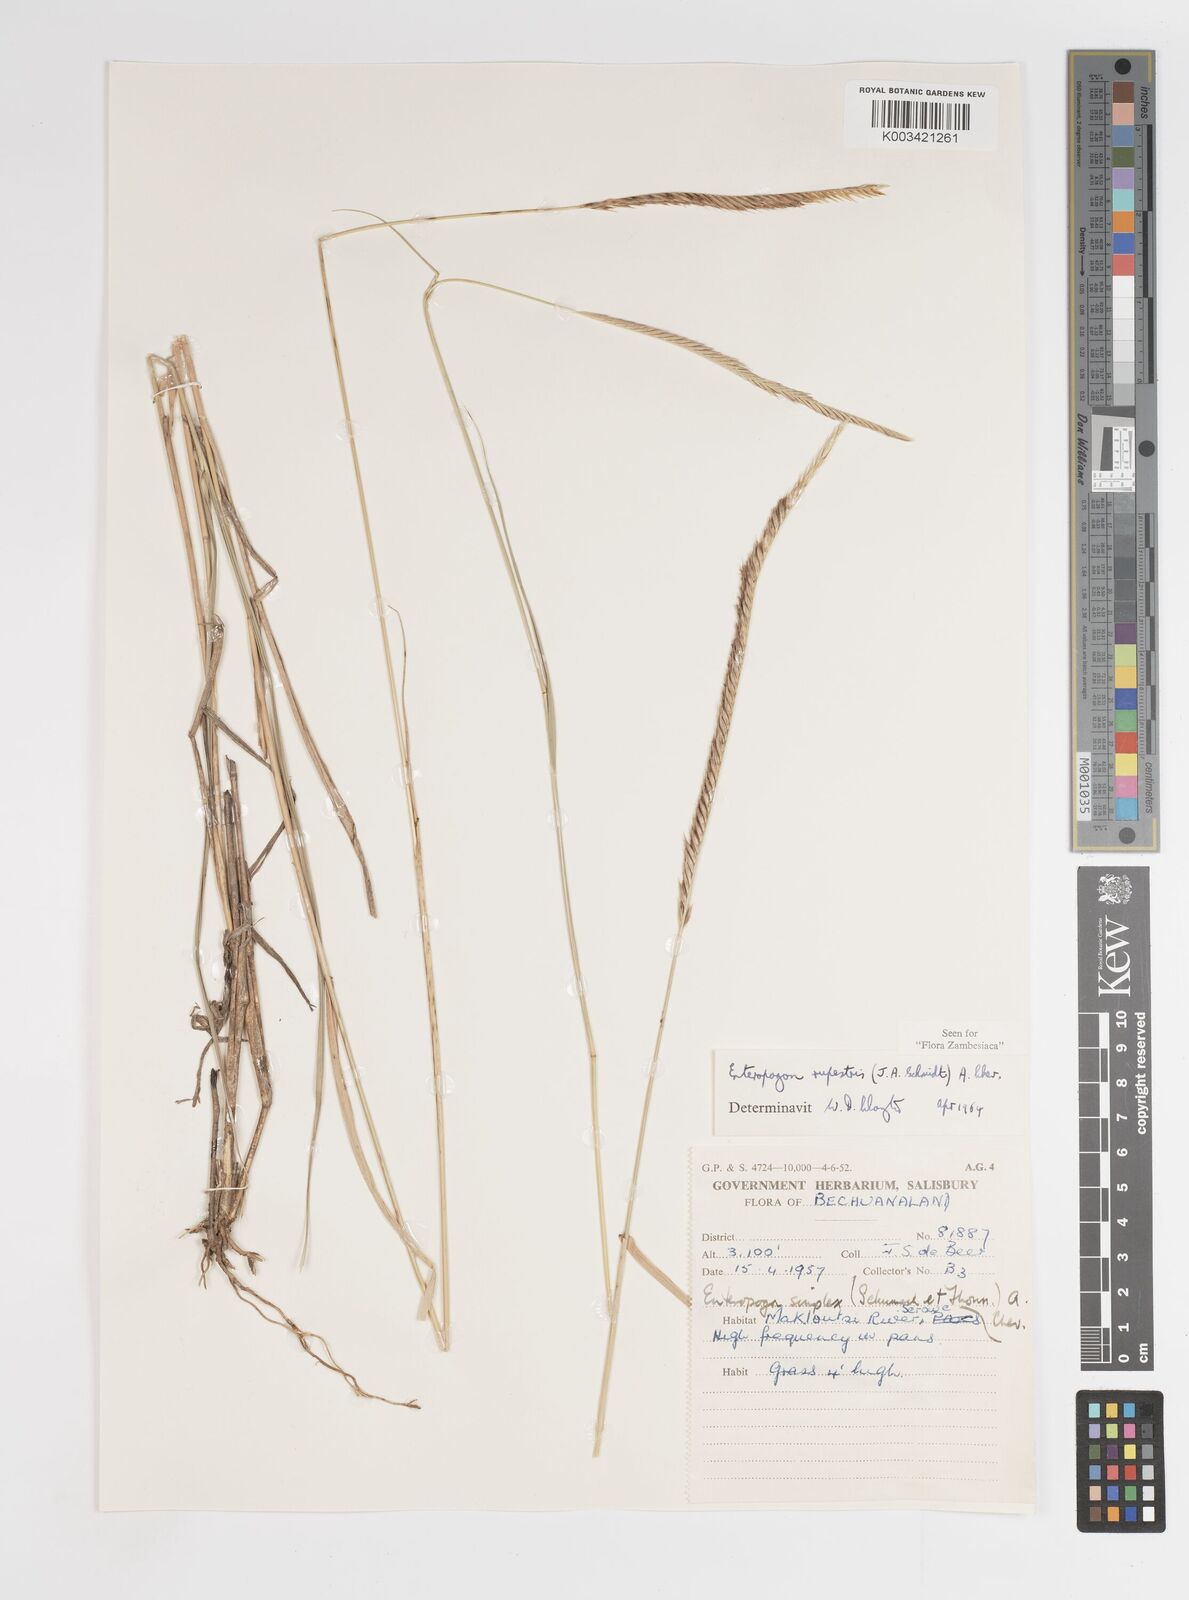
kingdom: Plantae
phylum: Tracheophyta
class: Liliopsida
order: Poales
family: Poaceae
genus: Enteropogon
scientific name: Enteropogon rupestris
